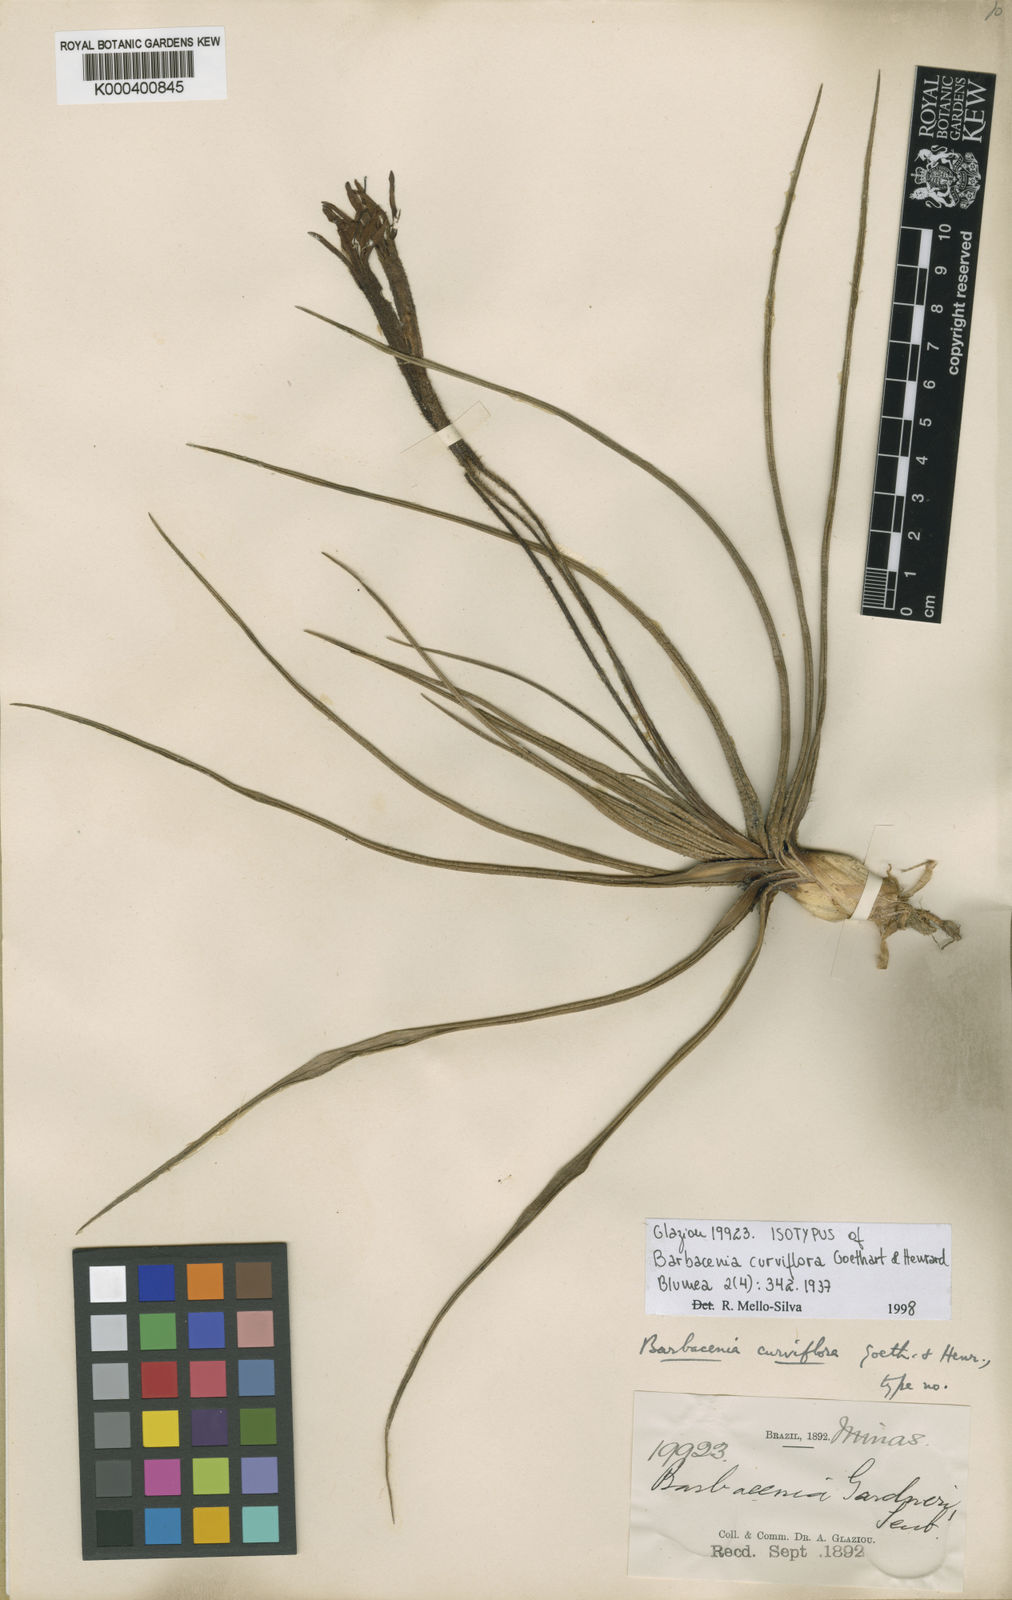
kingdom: Plantae
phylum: Tracheophyta
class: Liliopsida
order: Pandanales
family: Velloziaceae
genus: Barbacenia
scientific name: Barbacenia curviflora
